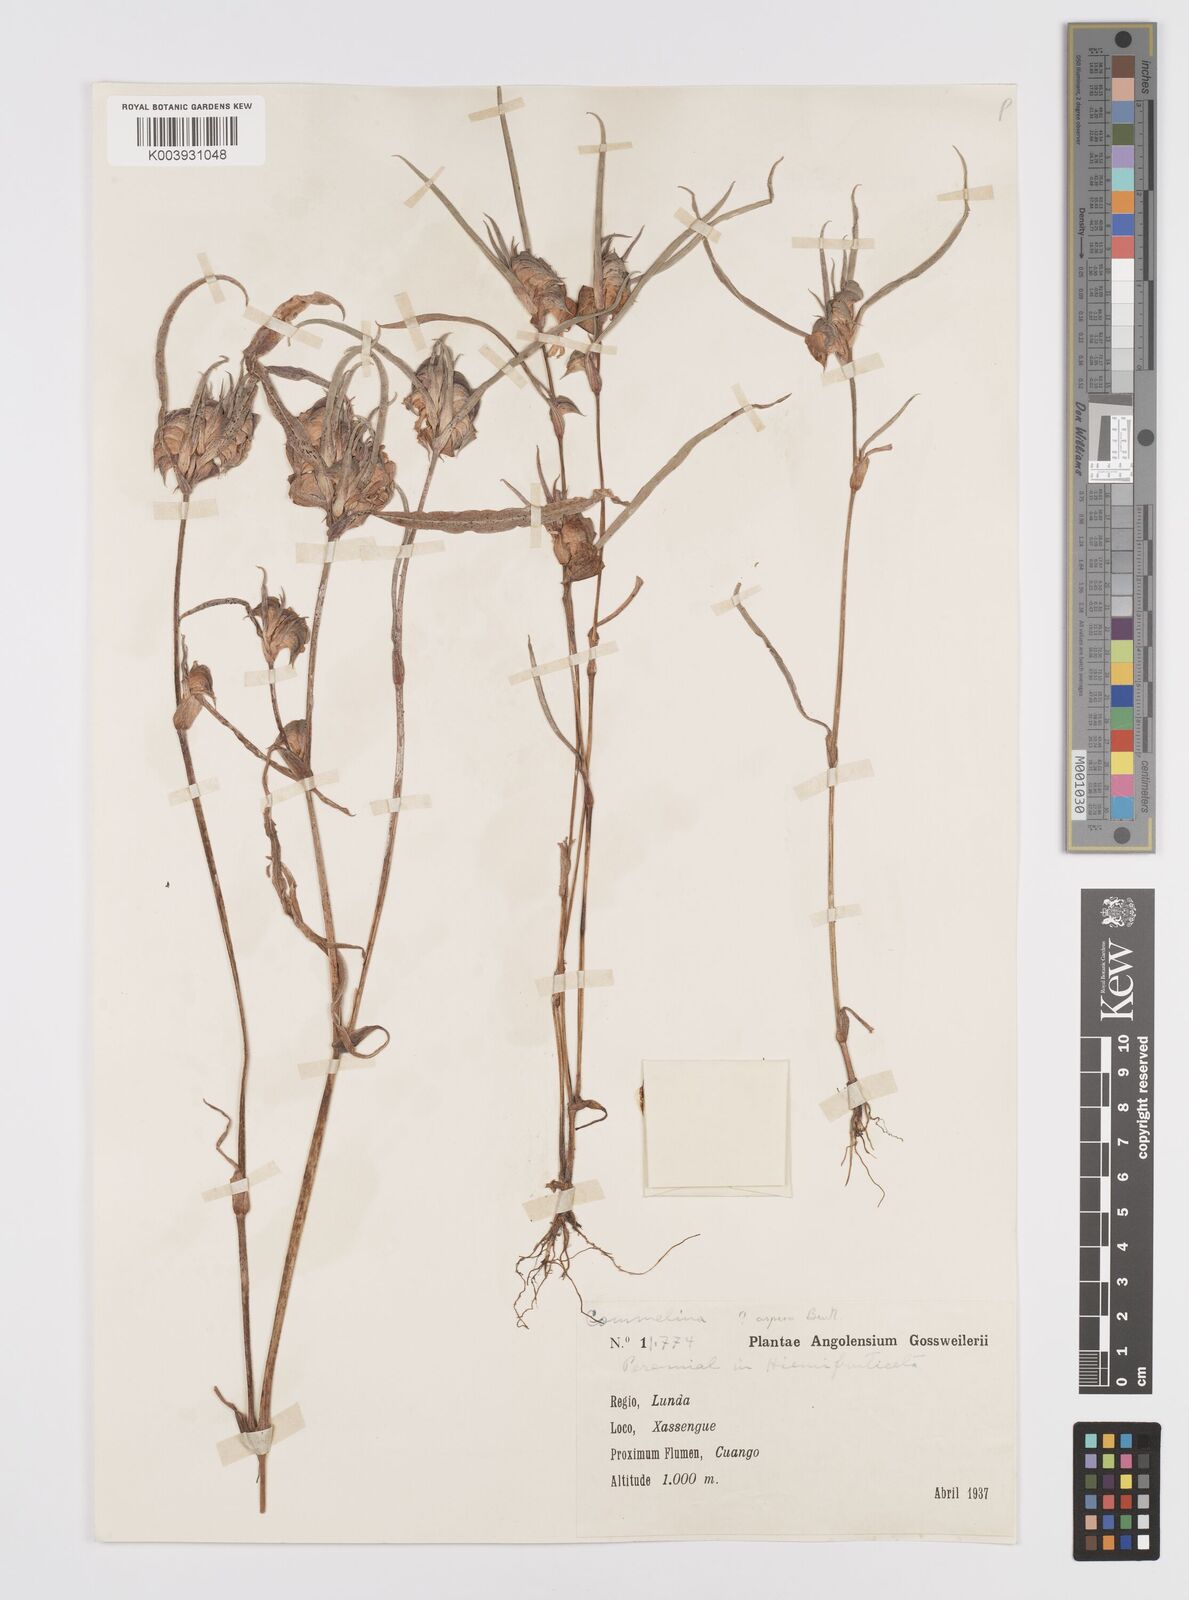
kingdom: Plantae
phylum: Tracheophyta
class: Liliopsida
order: Commelinales
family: Commelinaceae
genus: Commelina
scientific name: Commelina aspera
